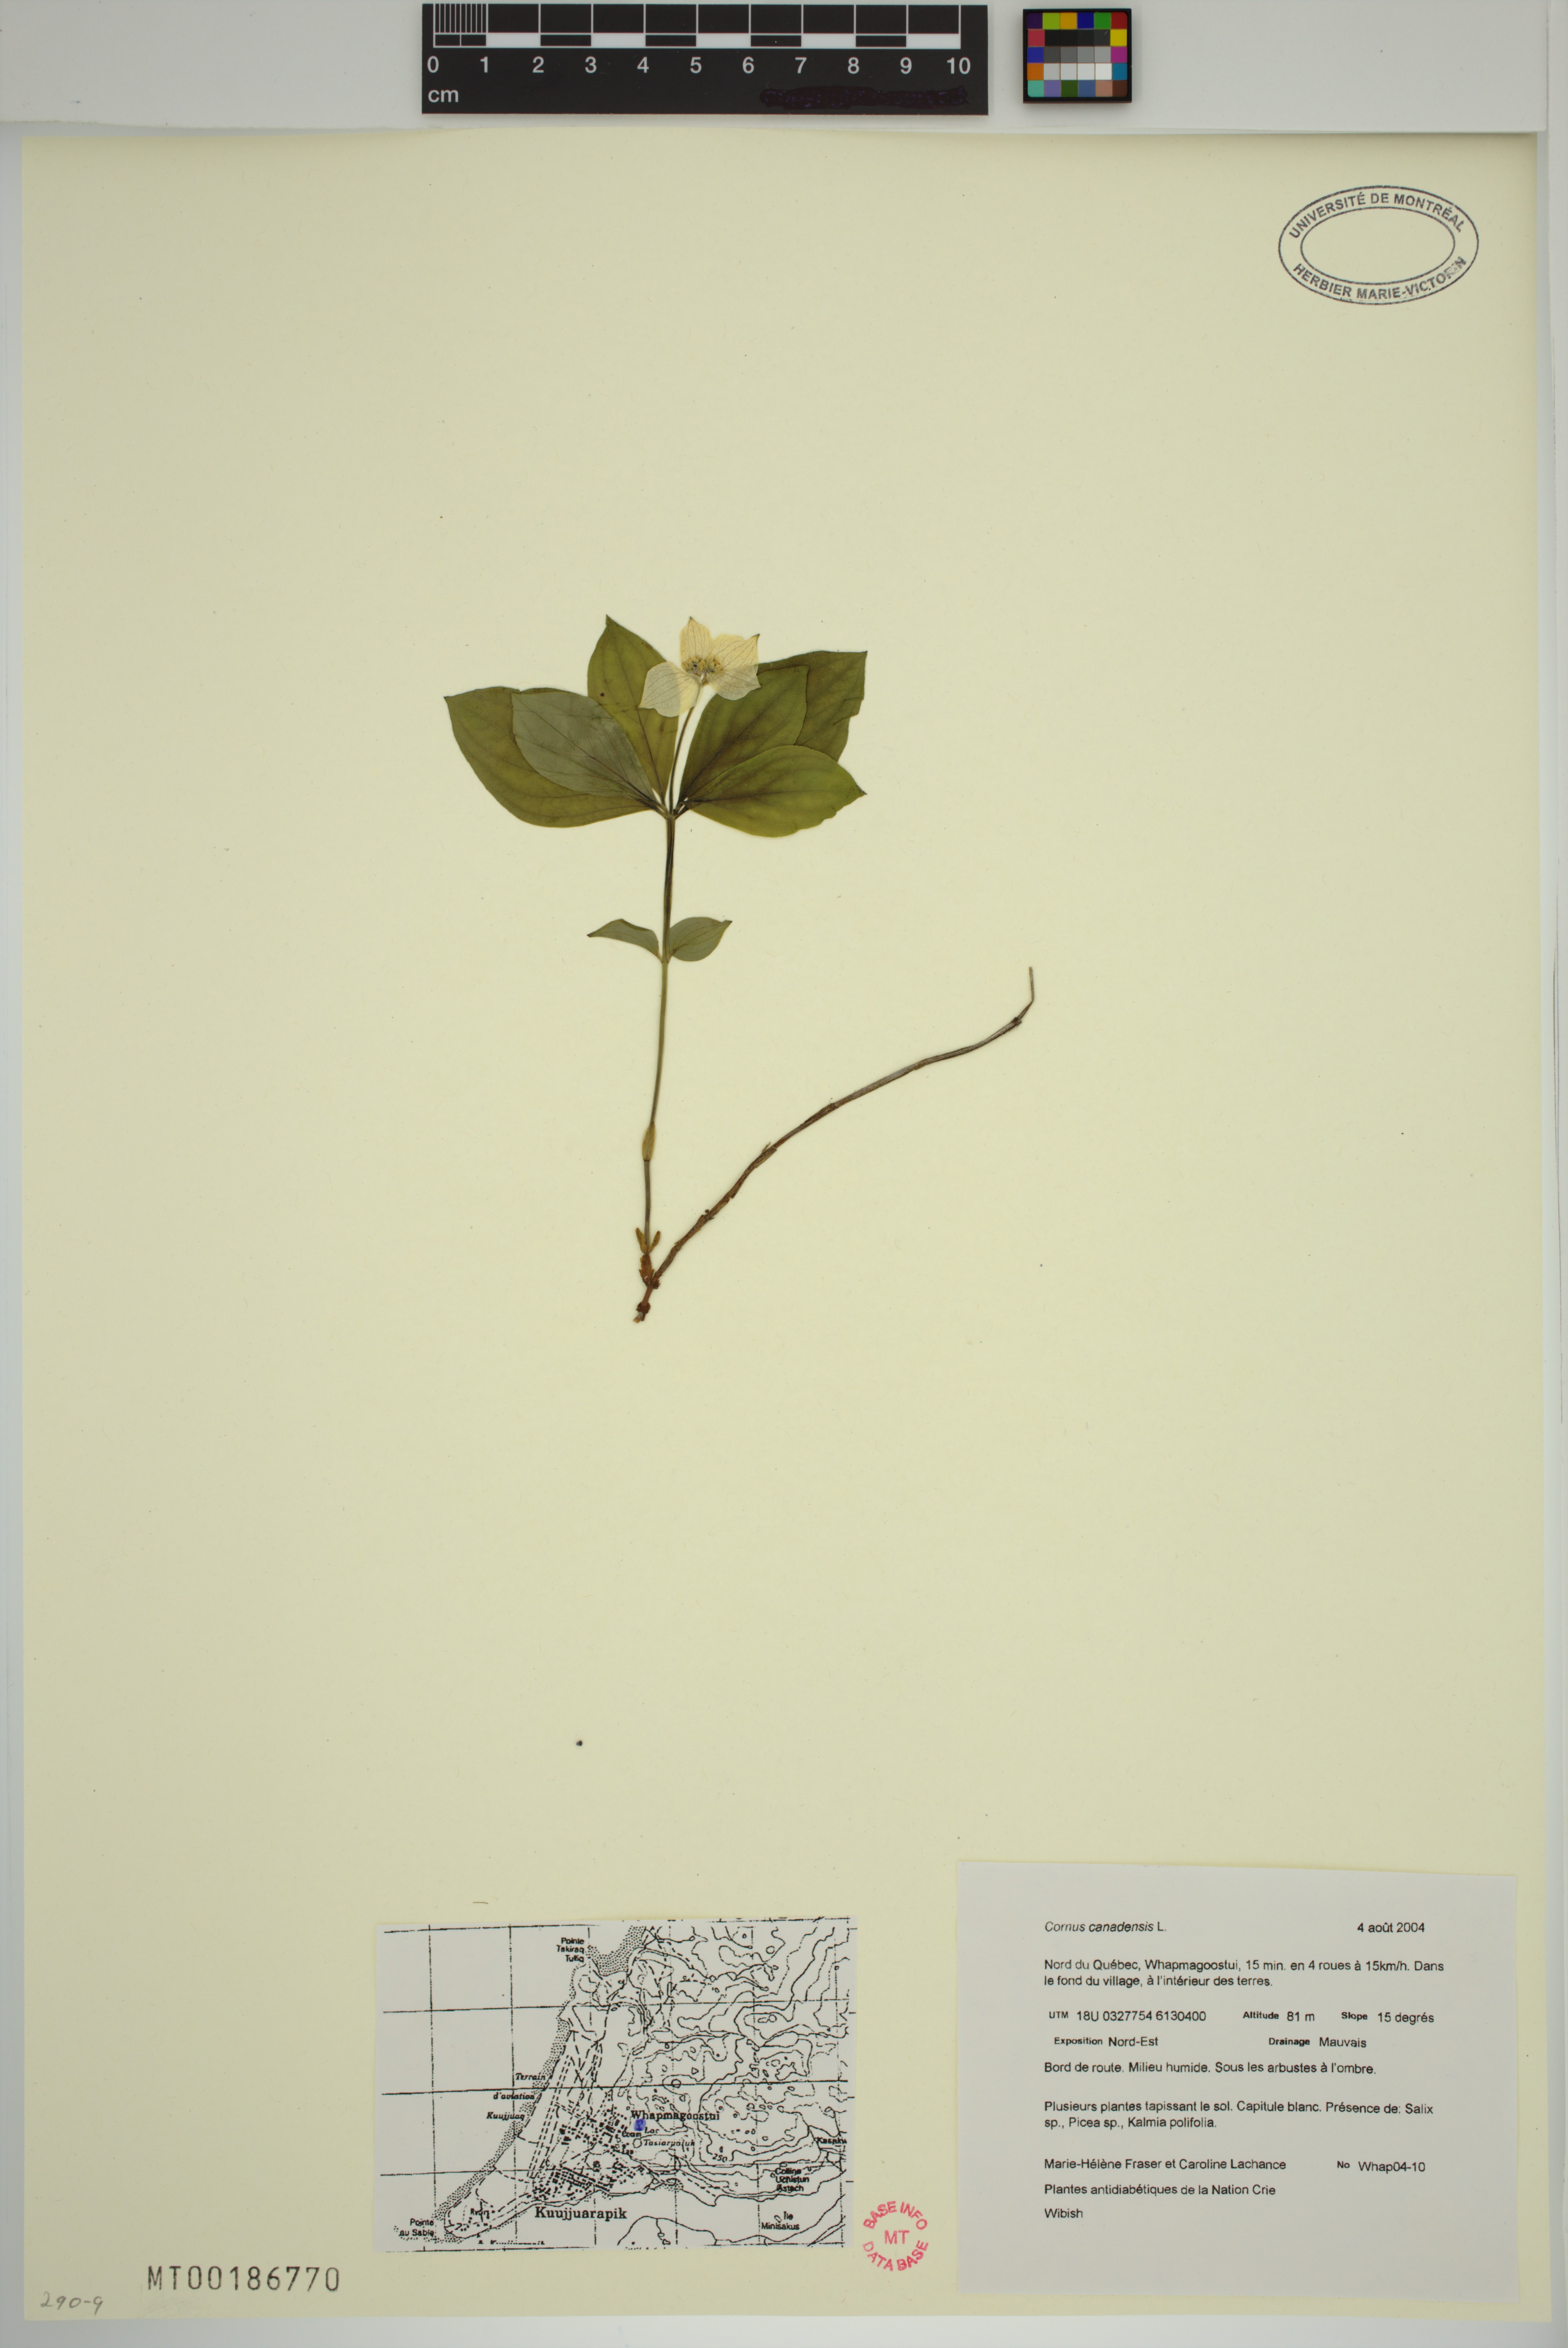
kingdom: Plantae
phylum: Tracheophyta
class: Magnoliopsida
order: Cornales
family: Cornaceae
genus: Cornus
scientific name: Cornus canadensis
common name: Creeping dogwood
